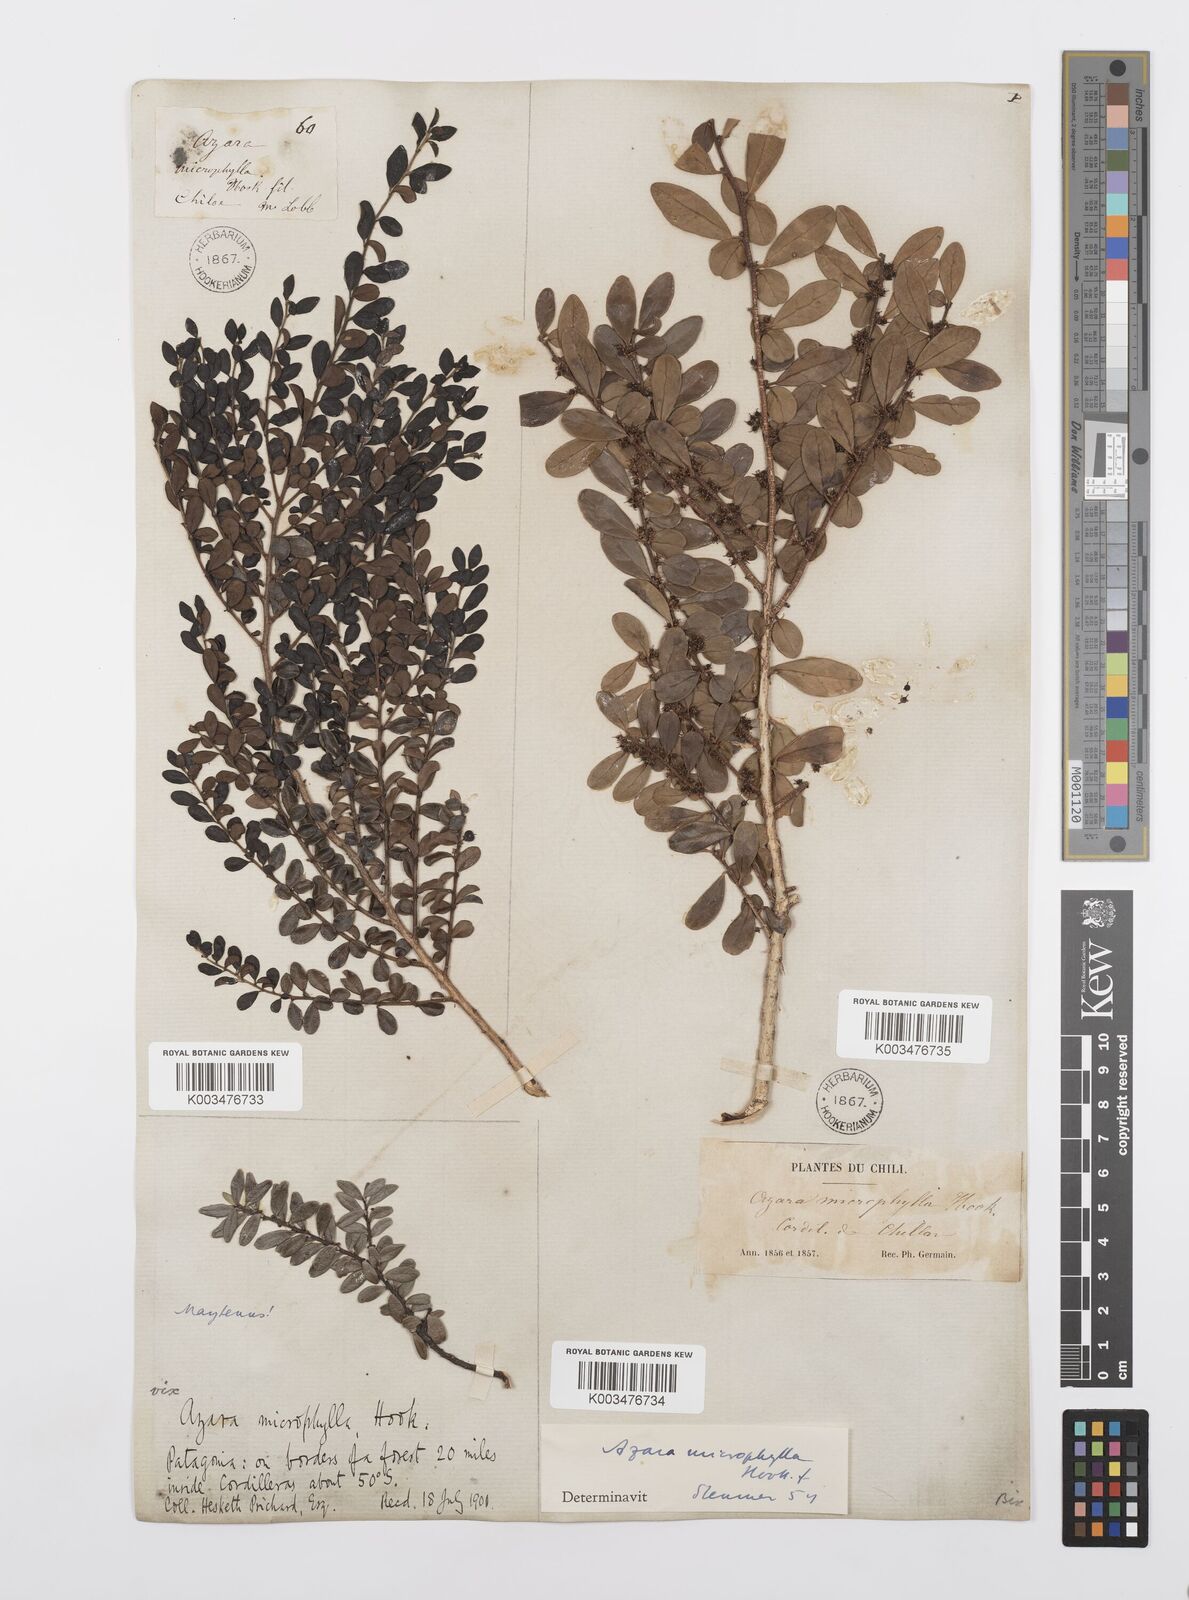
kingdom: Plantae
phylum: Tracheophyta
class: Magnoliopsida
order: Malpighiales
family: Salicaceae
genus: Azara
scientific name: Azara microphylla
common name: Box-leaf azara
